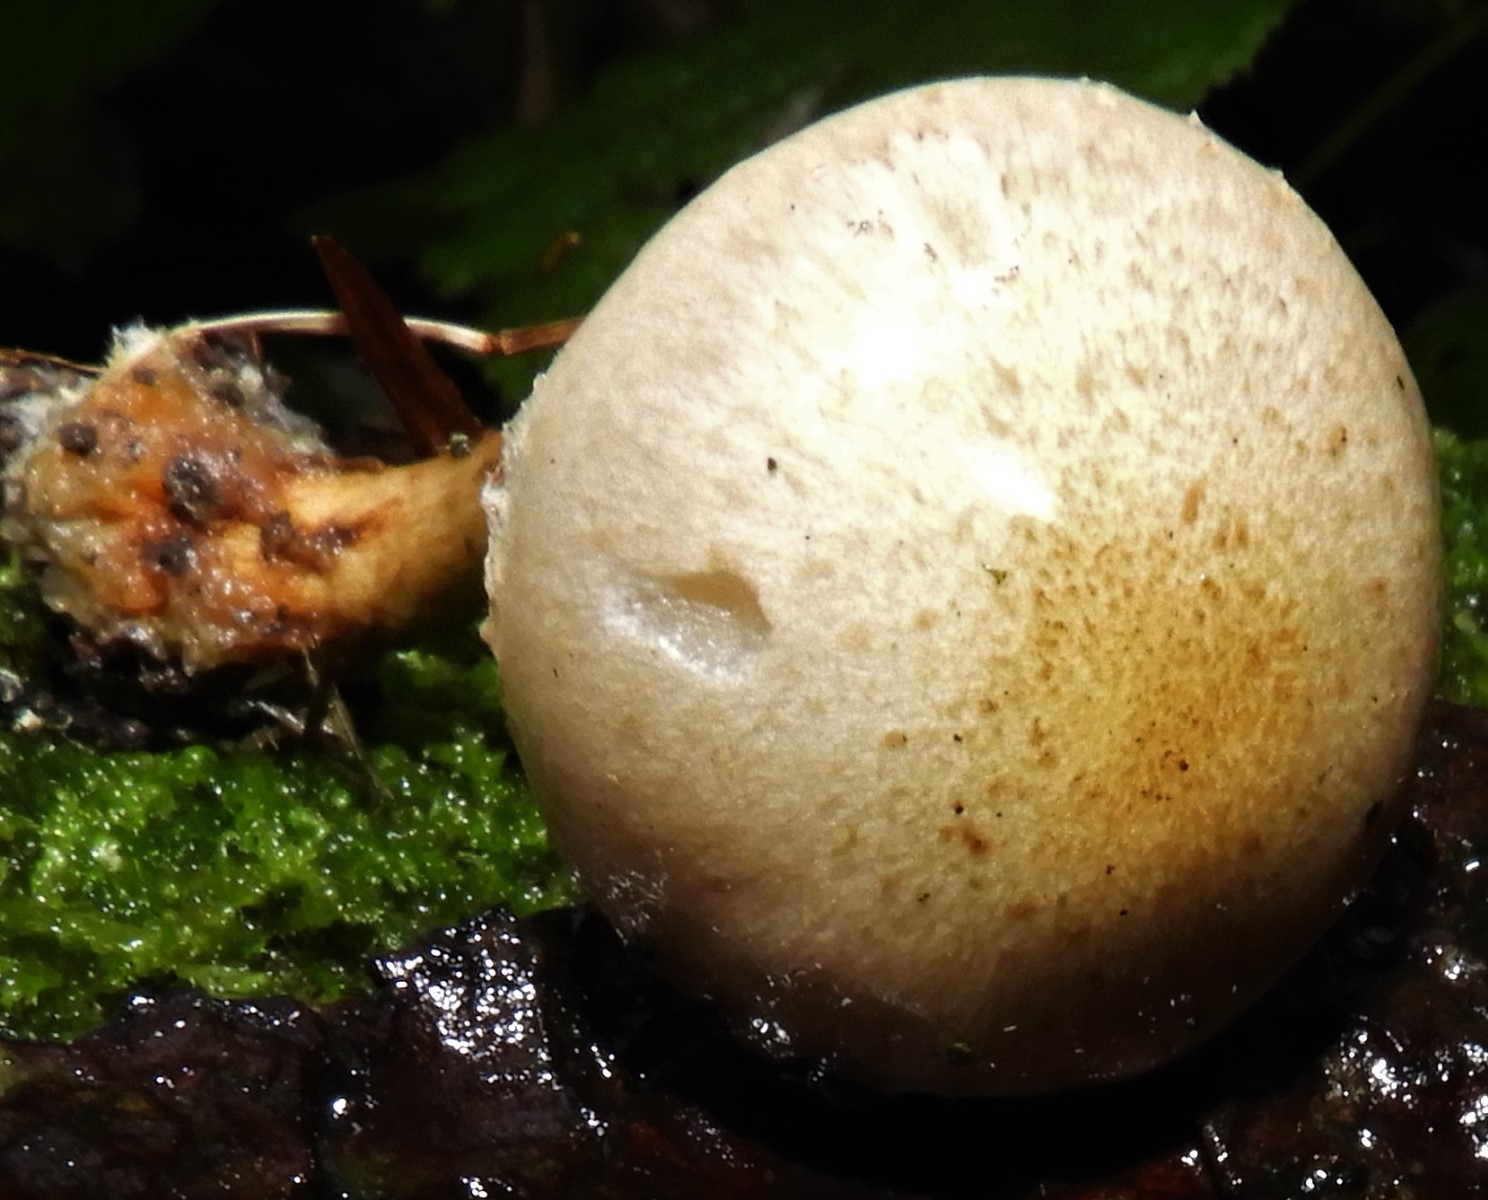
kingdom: Fungi
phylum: Basidiomycota
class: Agaricomycetes
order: Agaricales
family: Strophariaceae
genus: Pholiota
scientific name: Pholiota
